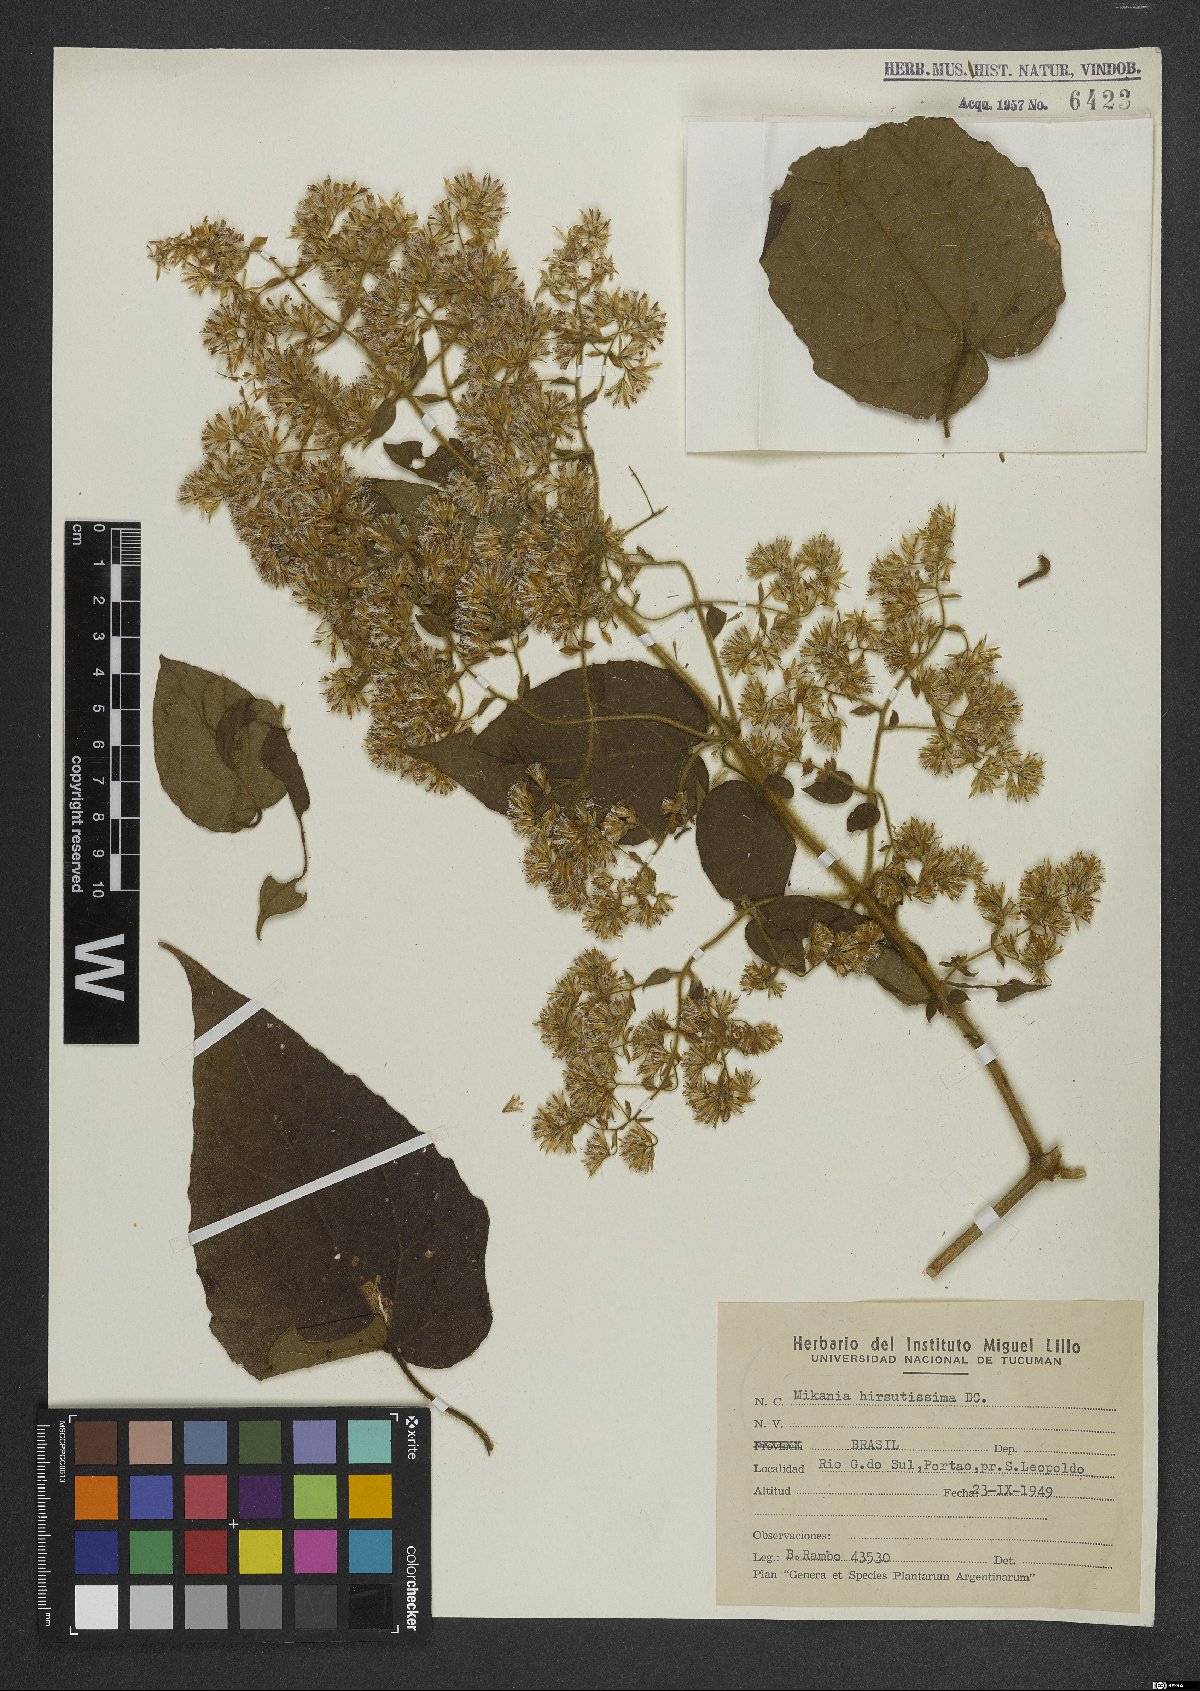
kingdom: Plantae
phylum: Tracheophyta
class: Magnoliopsida
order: Asterales
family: Asteraceae
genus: Mikania
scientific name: Mikania banisteriae
